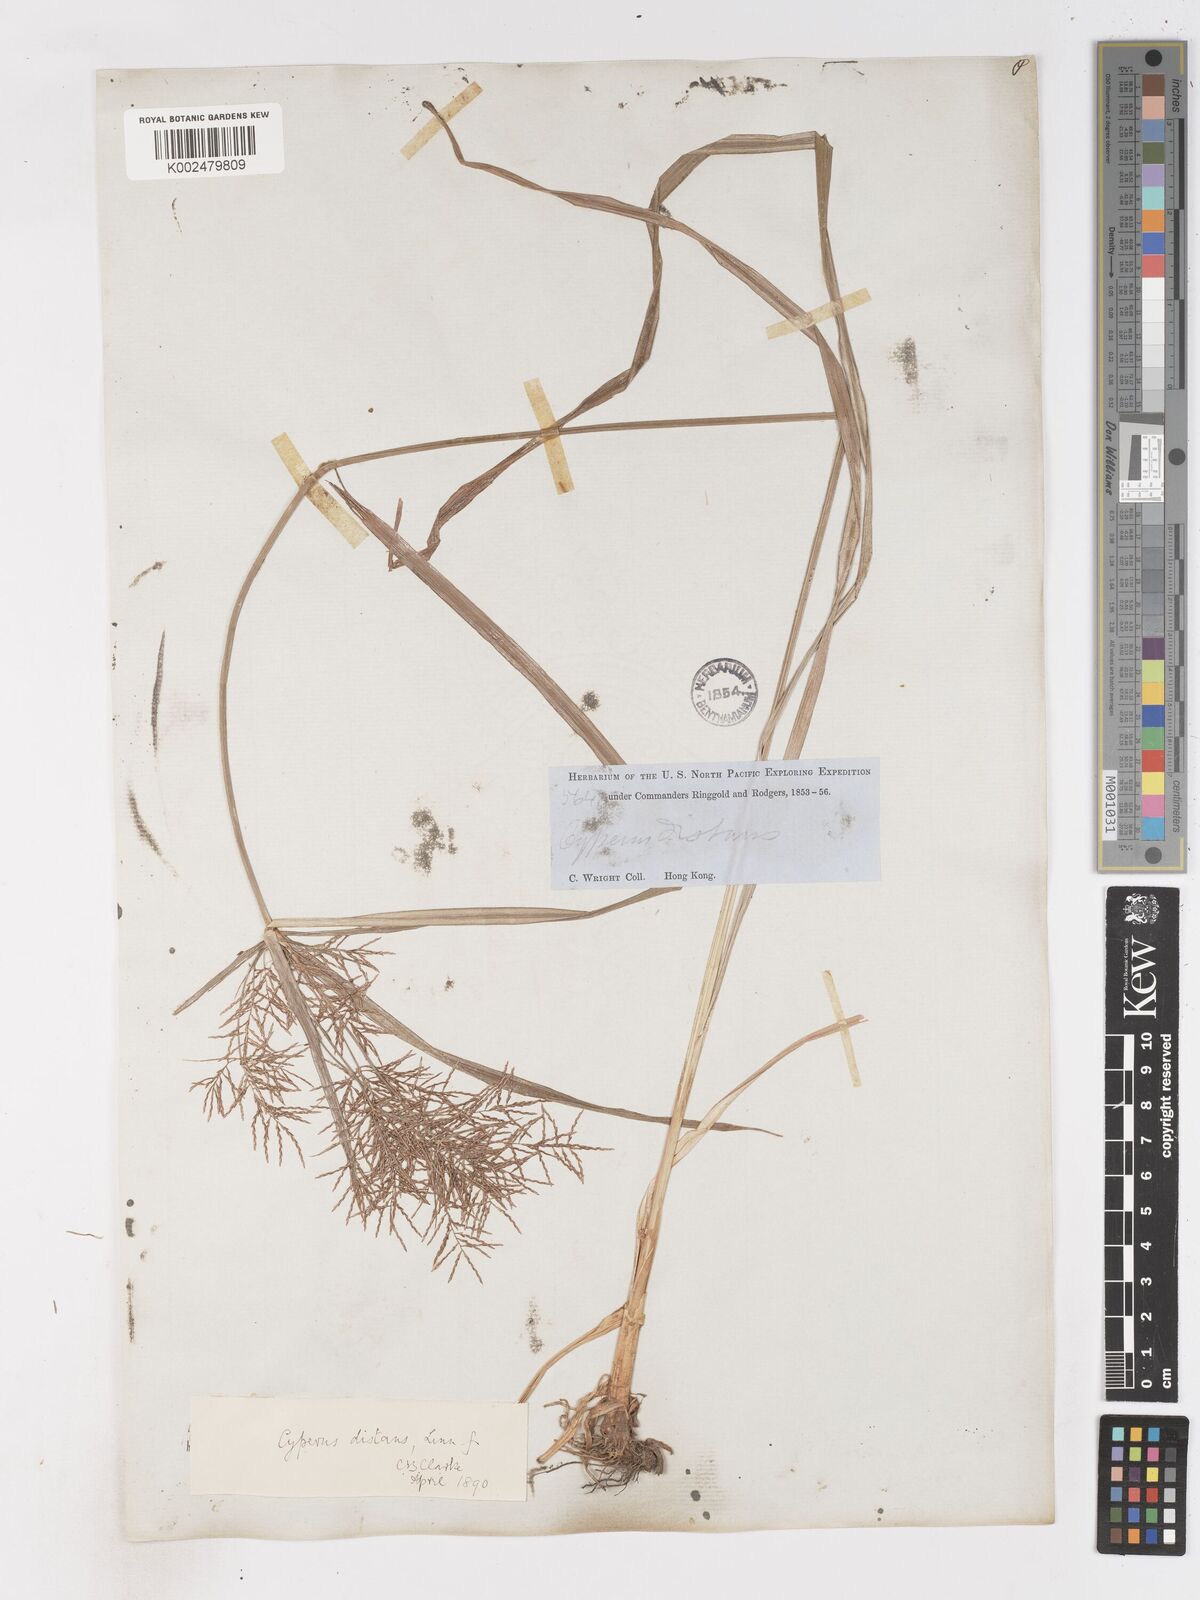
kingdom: Plantae
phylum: Tracheophyta
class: Liliopsida
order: Poales
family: Cyperaceae
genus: Cyperus
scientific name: Cyperus distans
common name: Slender cyperus
